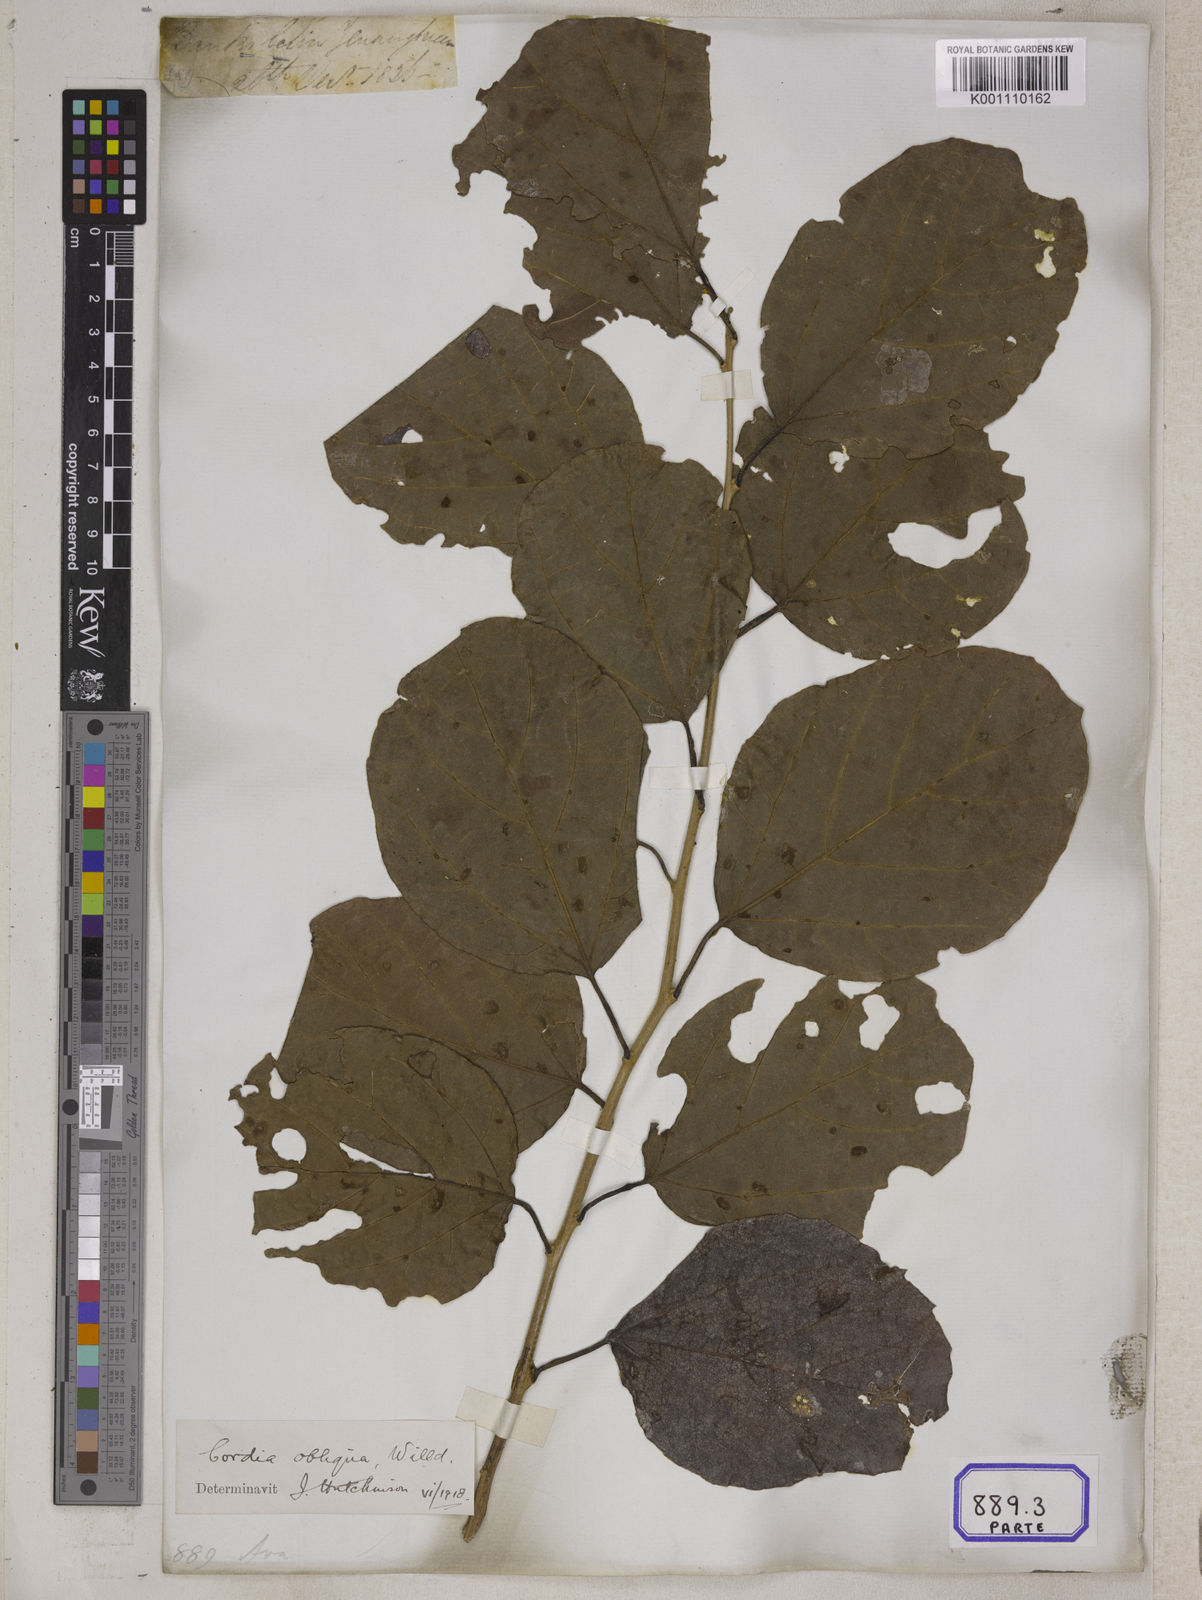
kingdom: Plantae
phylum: Tracheophyta
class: Magnoliopsida
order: Boraginales
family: Cordiaceae
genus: Cordia
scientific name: Cordia myxa
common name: Assyrian plum
